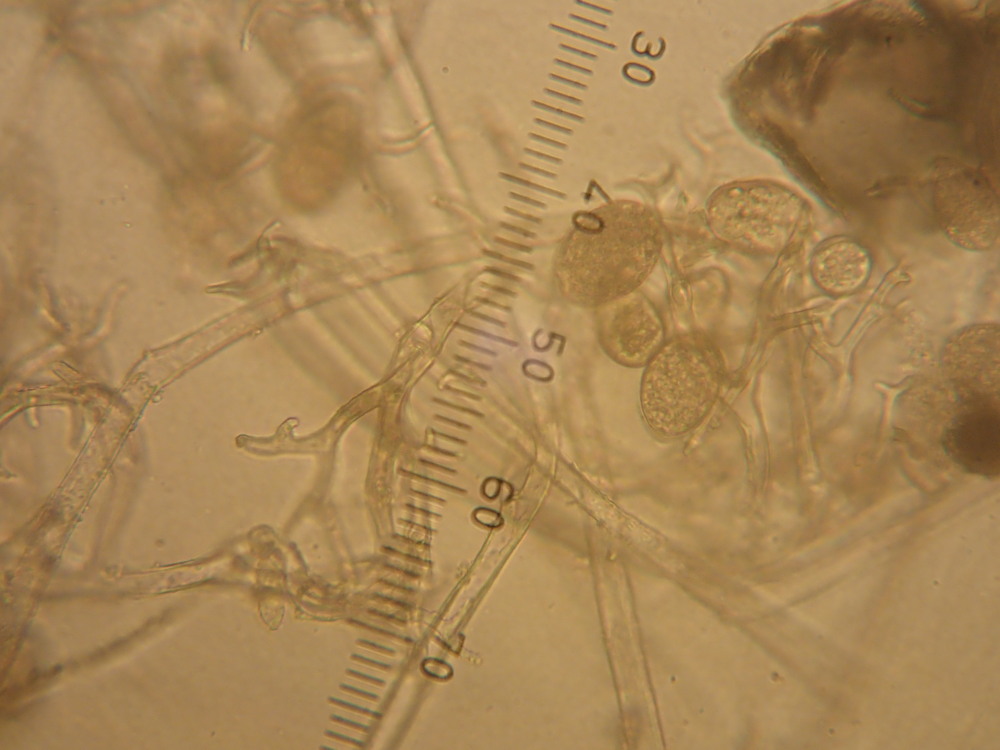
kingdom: Chromista
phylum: Oomycota
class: Peronosporea
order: Peronosporales
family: Peronosporaceae
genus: Peronospora
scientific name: Peronospora farinosa
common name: Beet downy mildew
